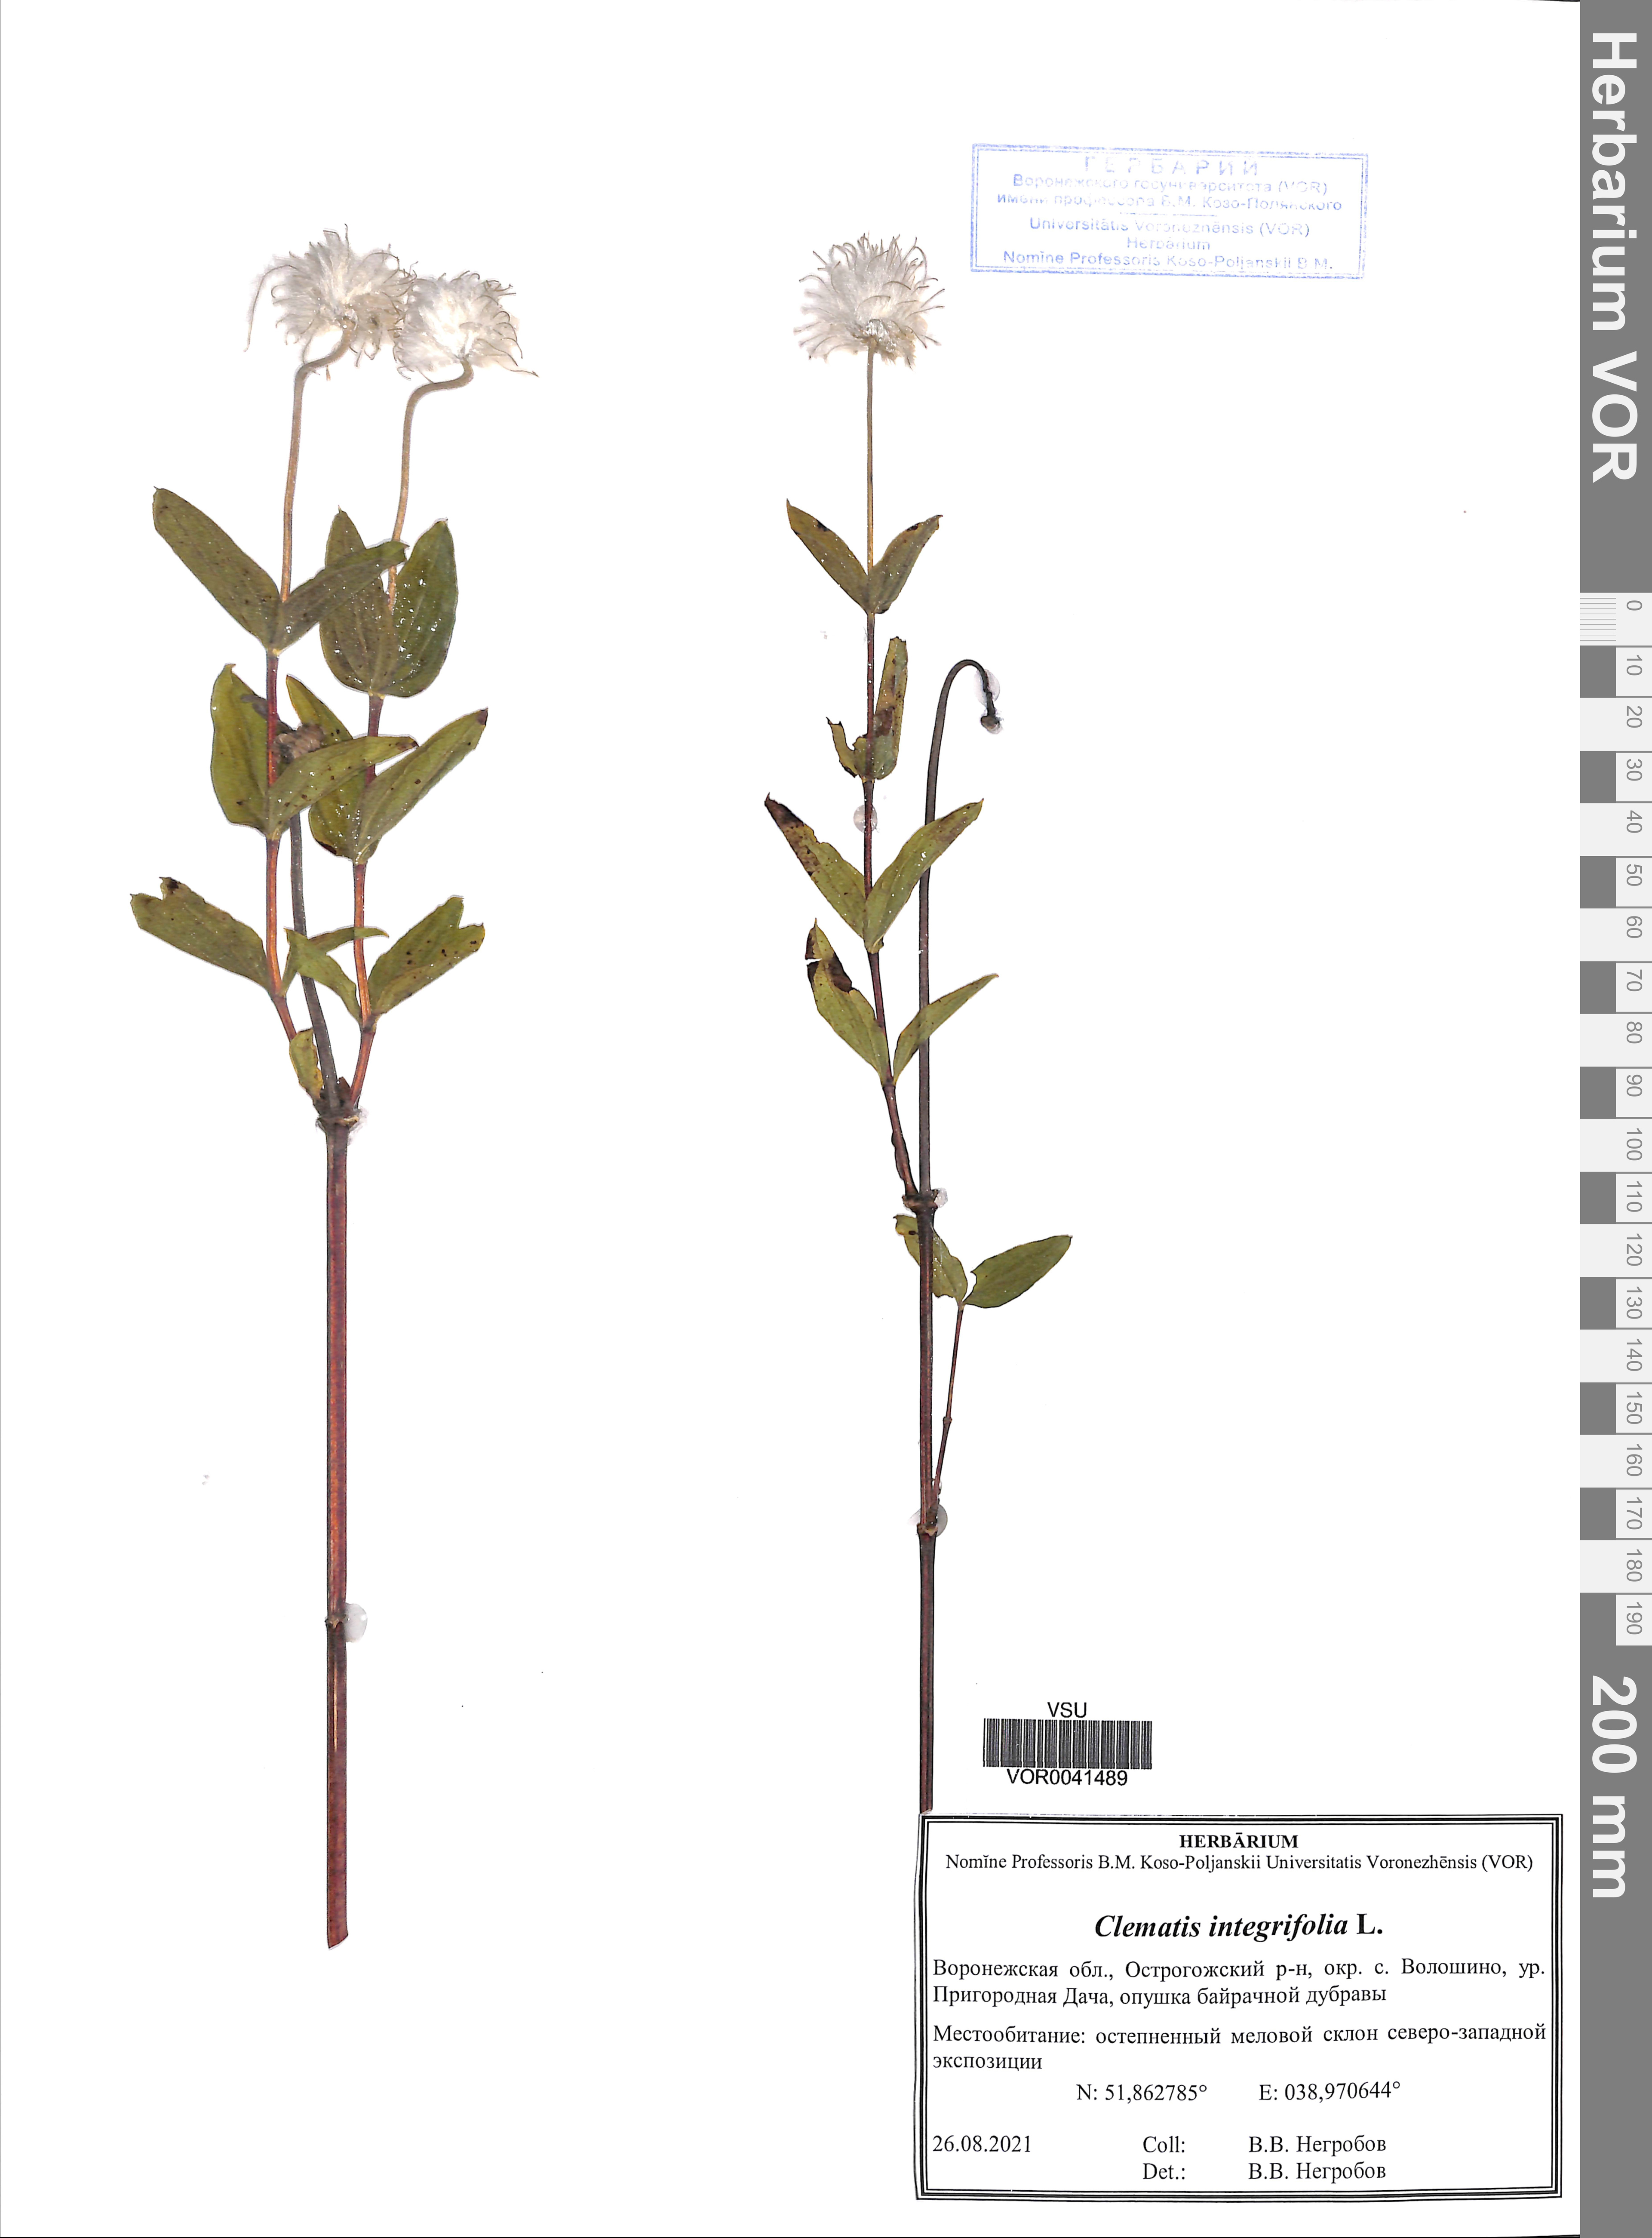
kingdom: Plantae
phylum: Tracheophyta
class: Magnoliopsida
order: Ranunculales
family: Ranunculaceae
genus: Clematis
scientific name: Clematis integrifolia
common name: Solitary clematis
